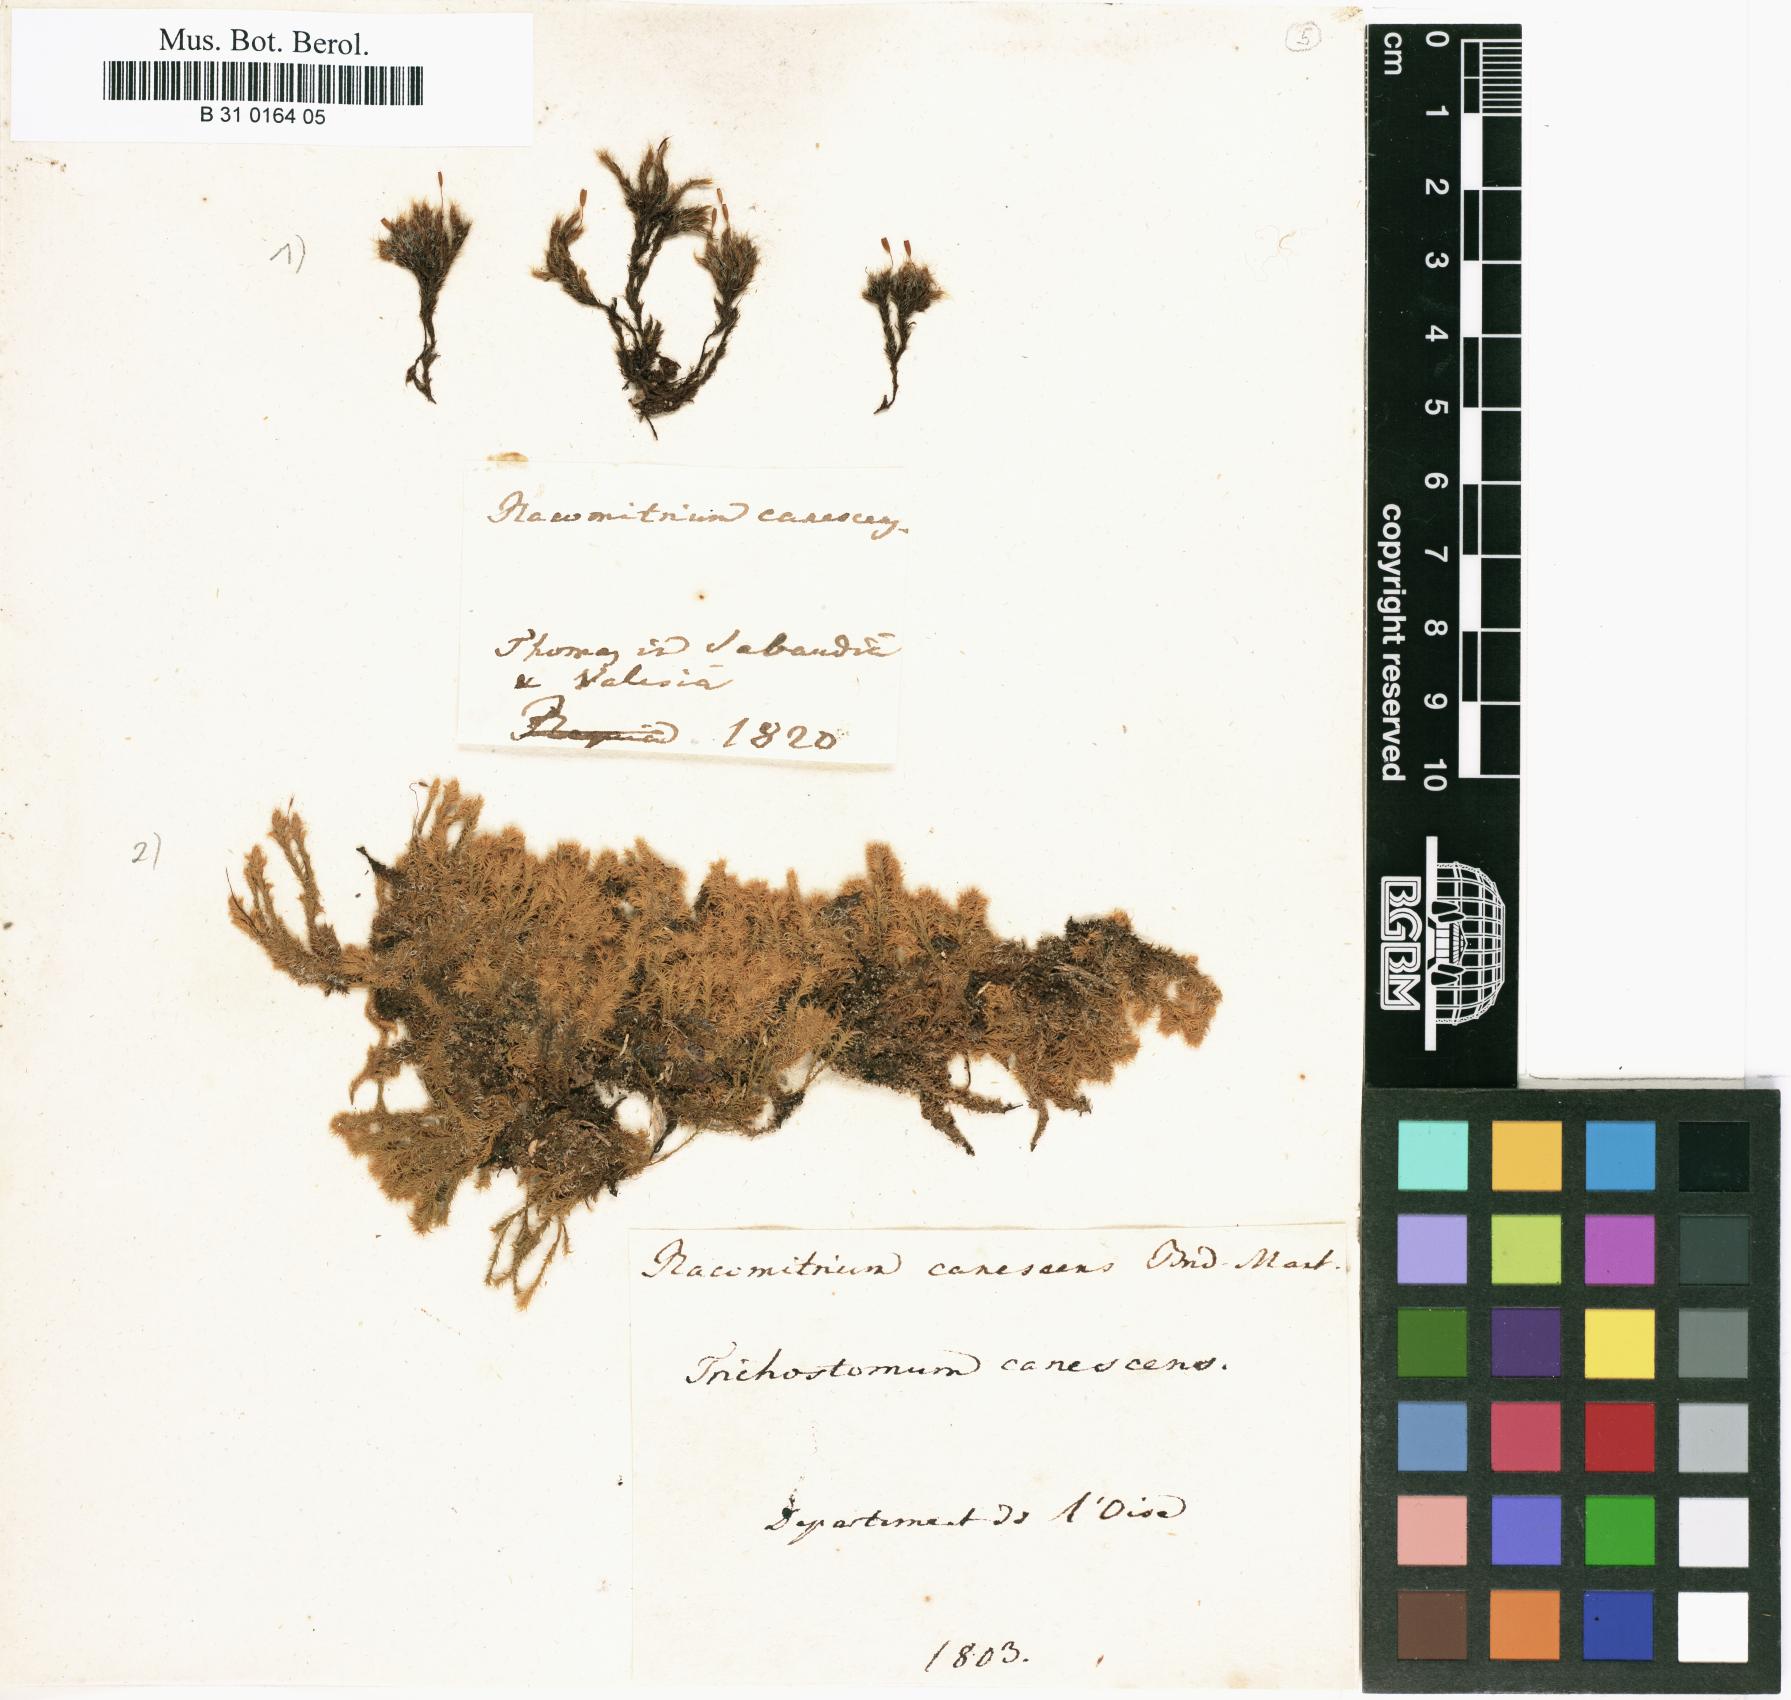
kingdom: Plantae
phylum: Bryophyta
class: Bryopsida
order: Grimmiales
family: Grimmiaceae
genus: Bucklandiella
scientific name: Bucklandiella heterosticha
